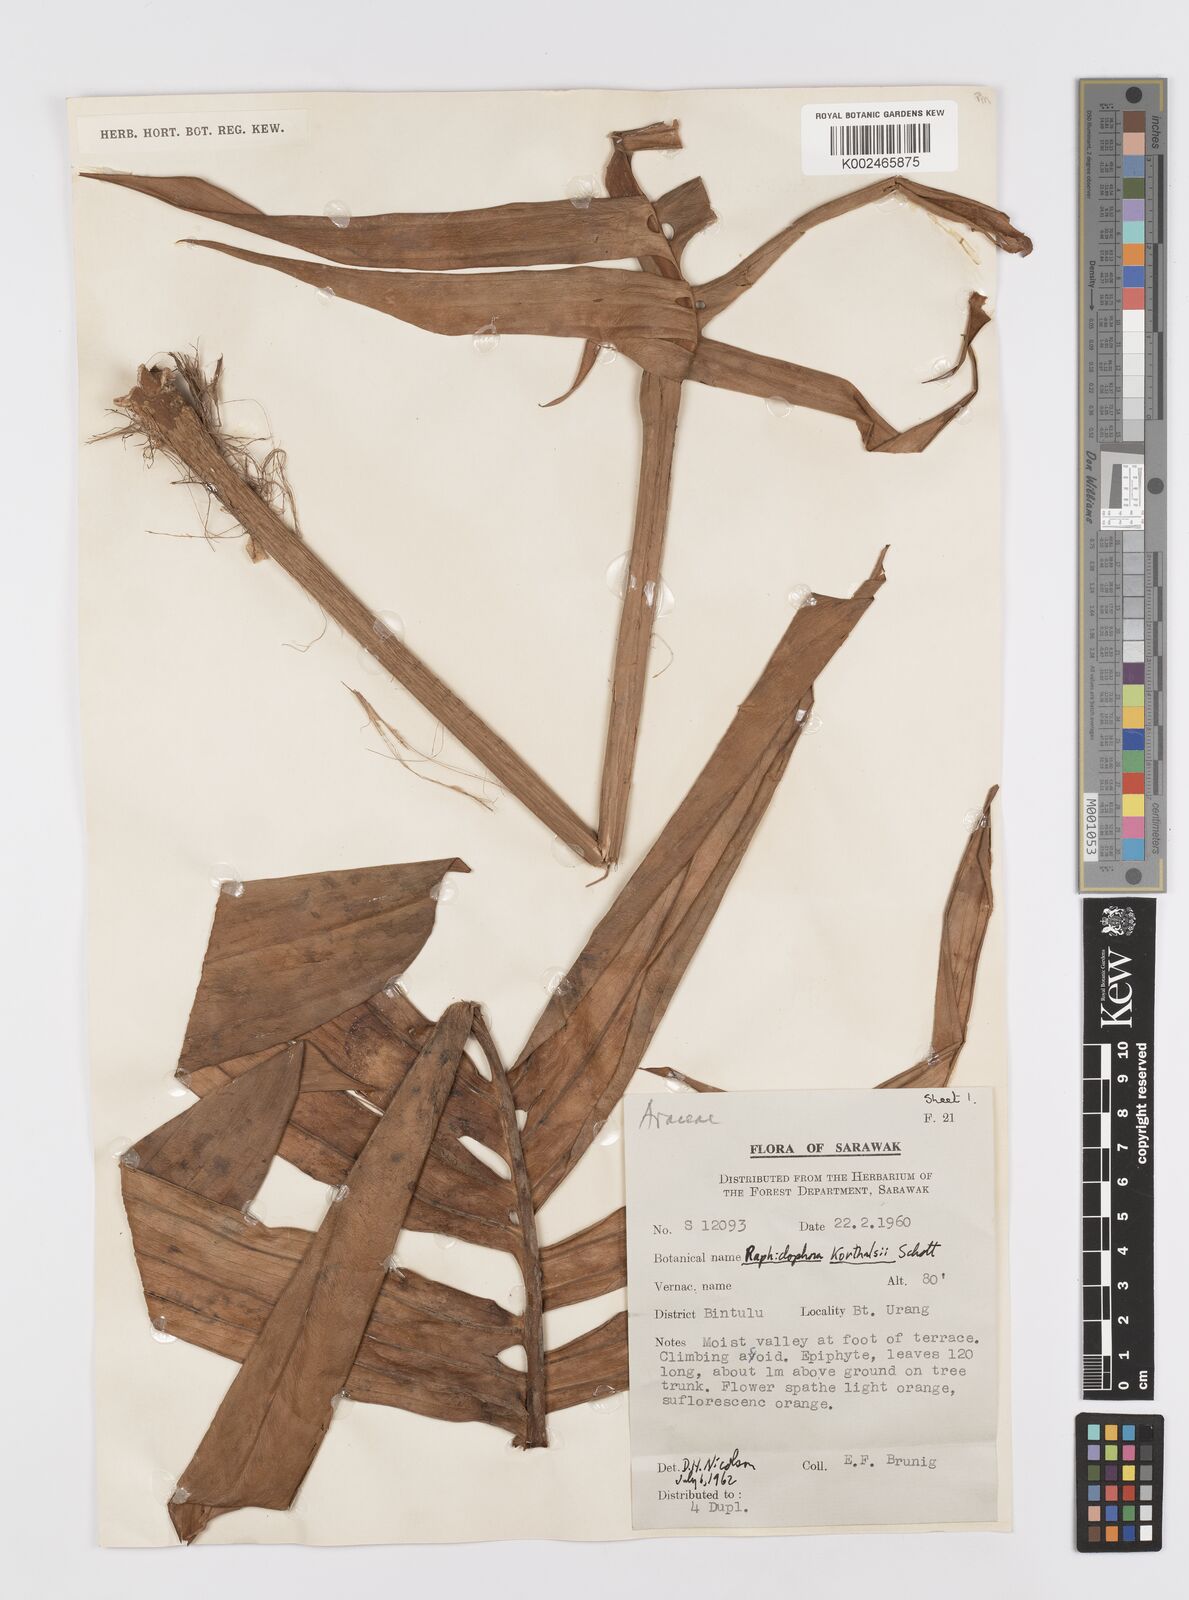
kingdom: Plantae
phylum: Tracheophyta
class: Liliopsida
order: Alismatales
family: Araceae
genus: Rhaphidophora
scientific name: Rhaphidophora korthalsii
